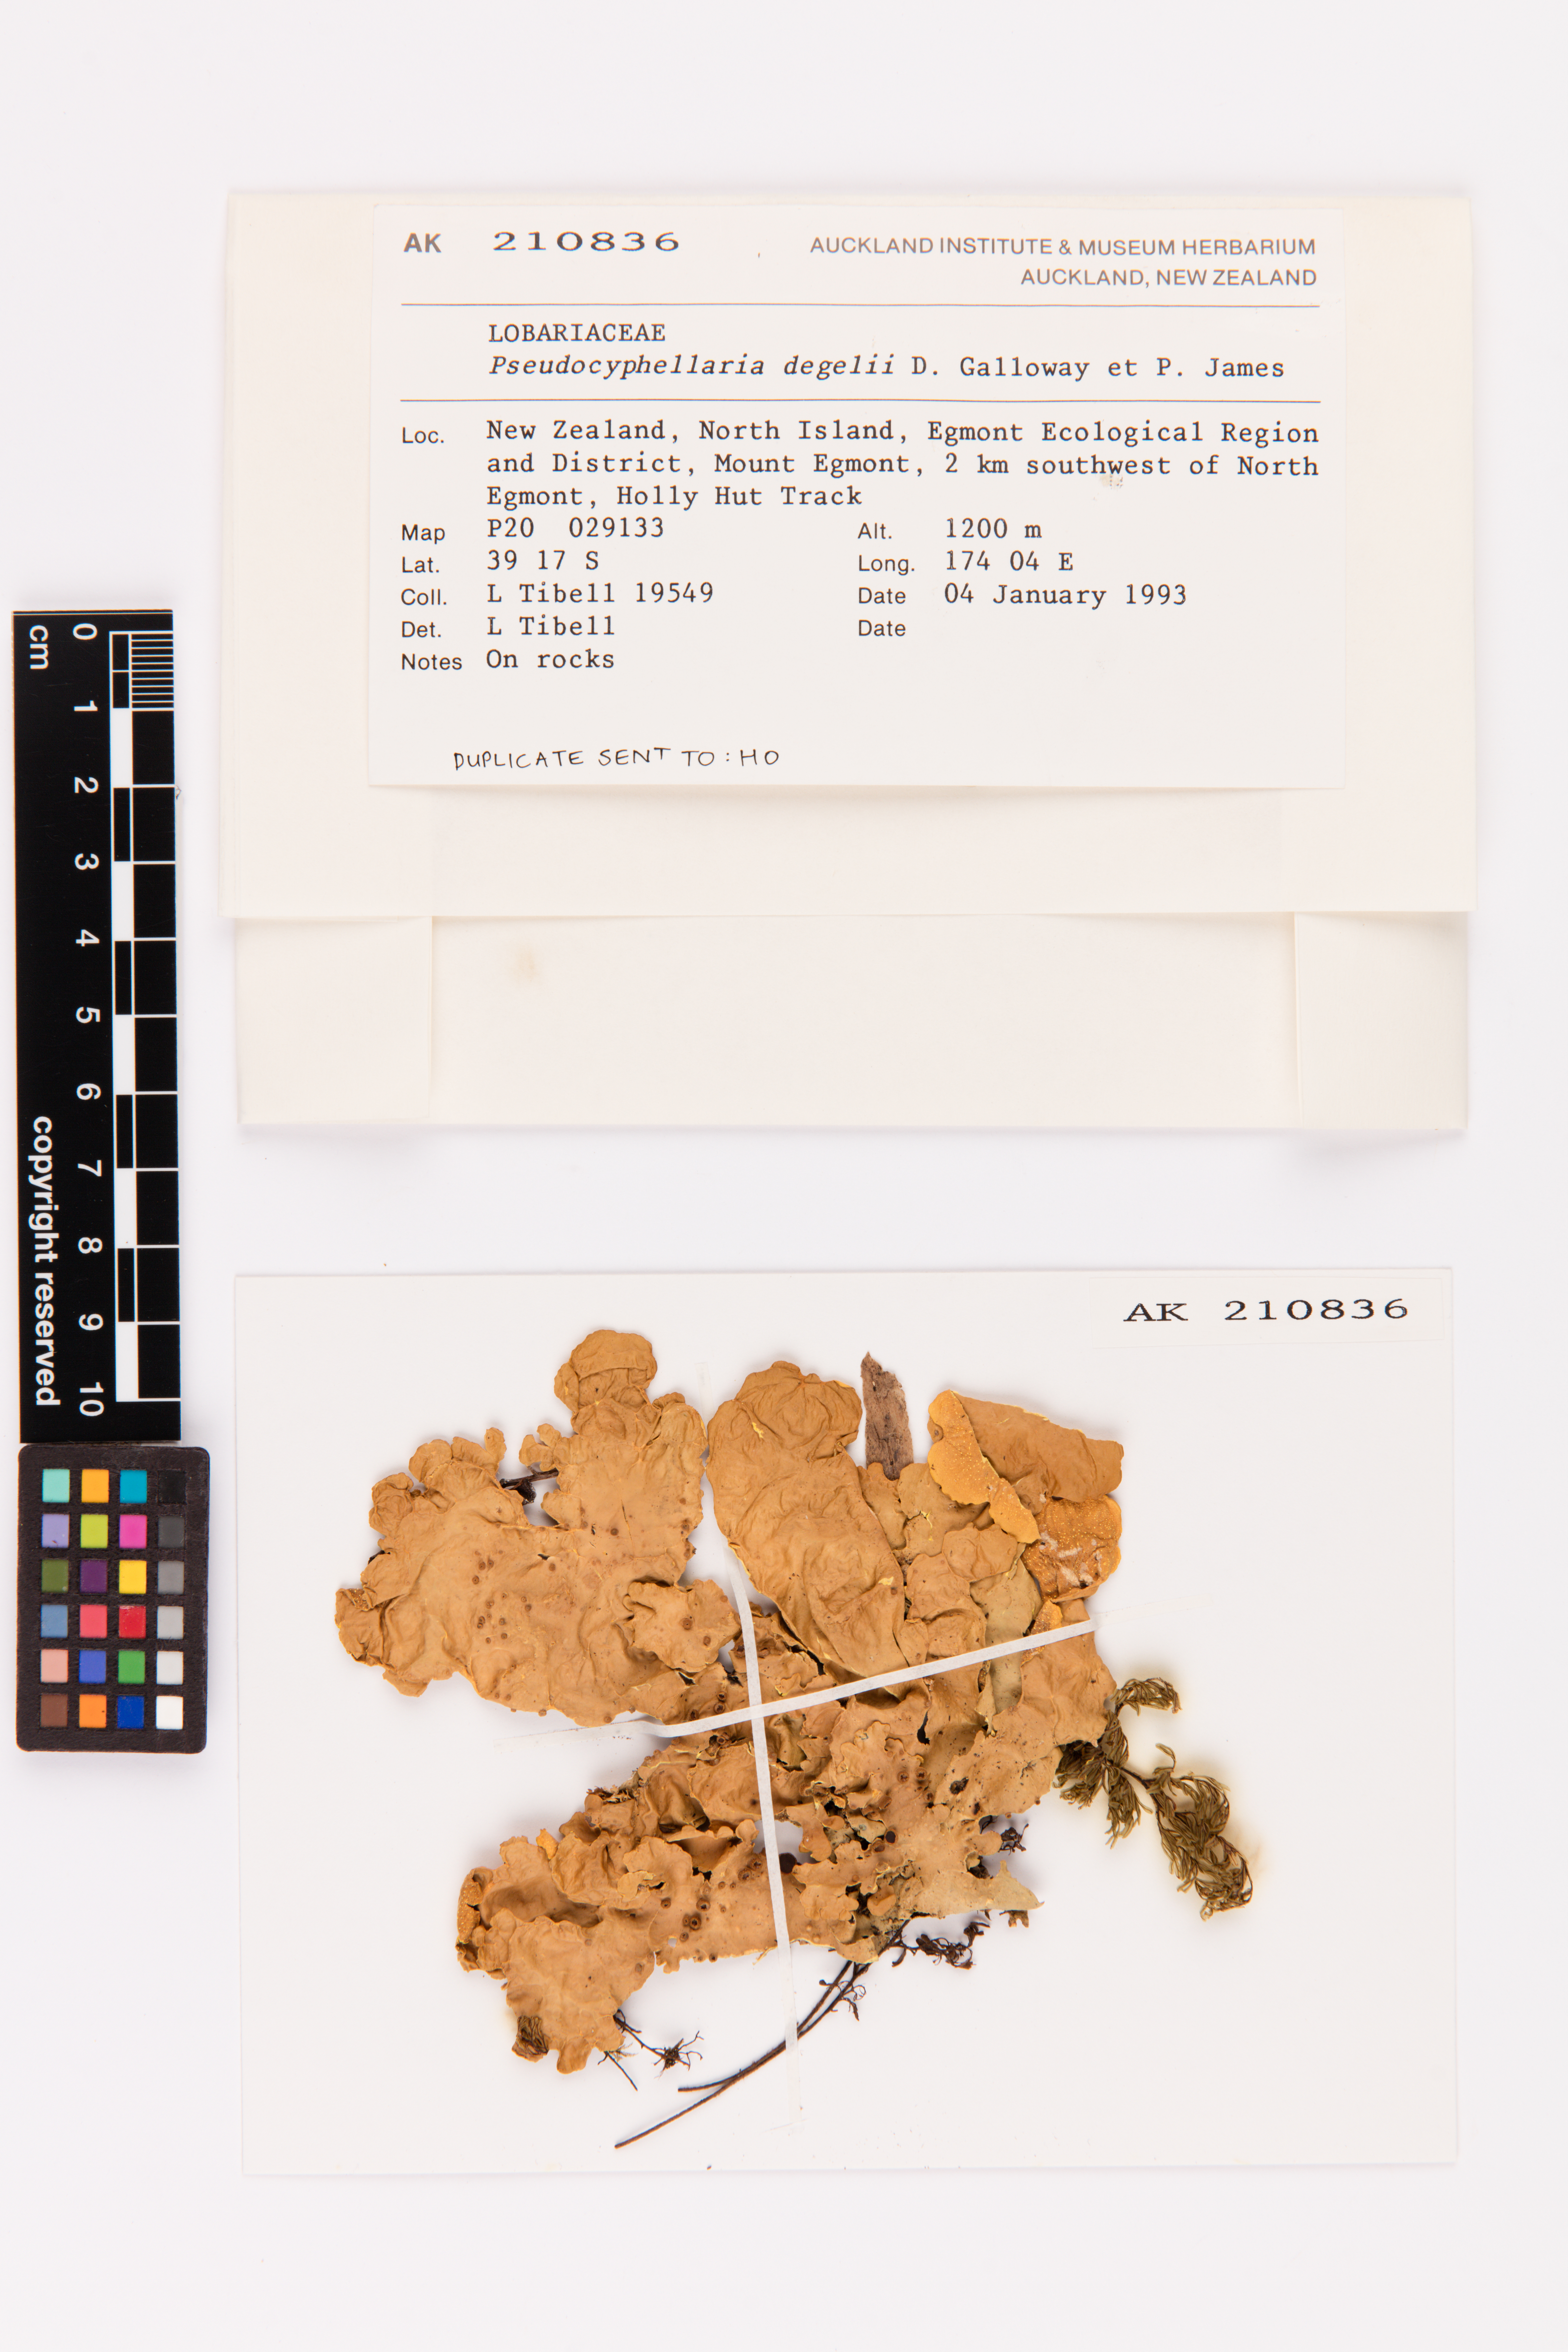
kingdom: Fungi
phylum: Ascomycota
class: Lecanoromycetes
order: Peltigerales
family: Lobariaceae
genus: Podostictina
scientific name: Podostictina degelii
